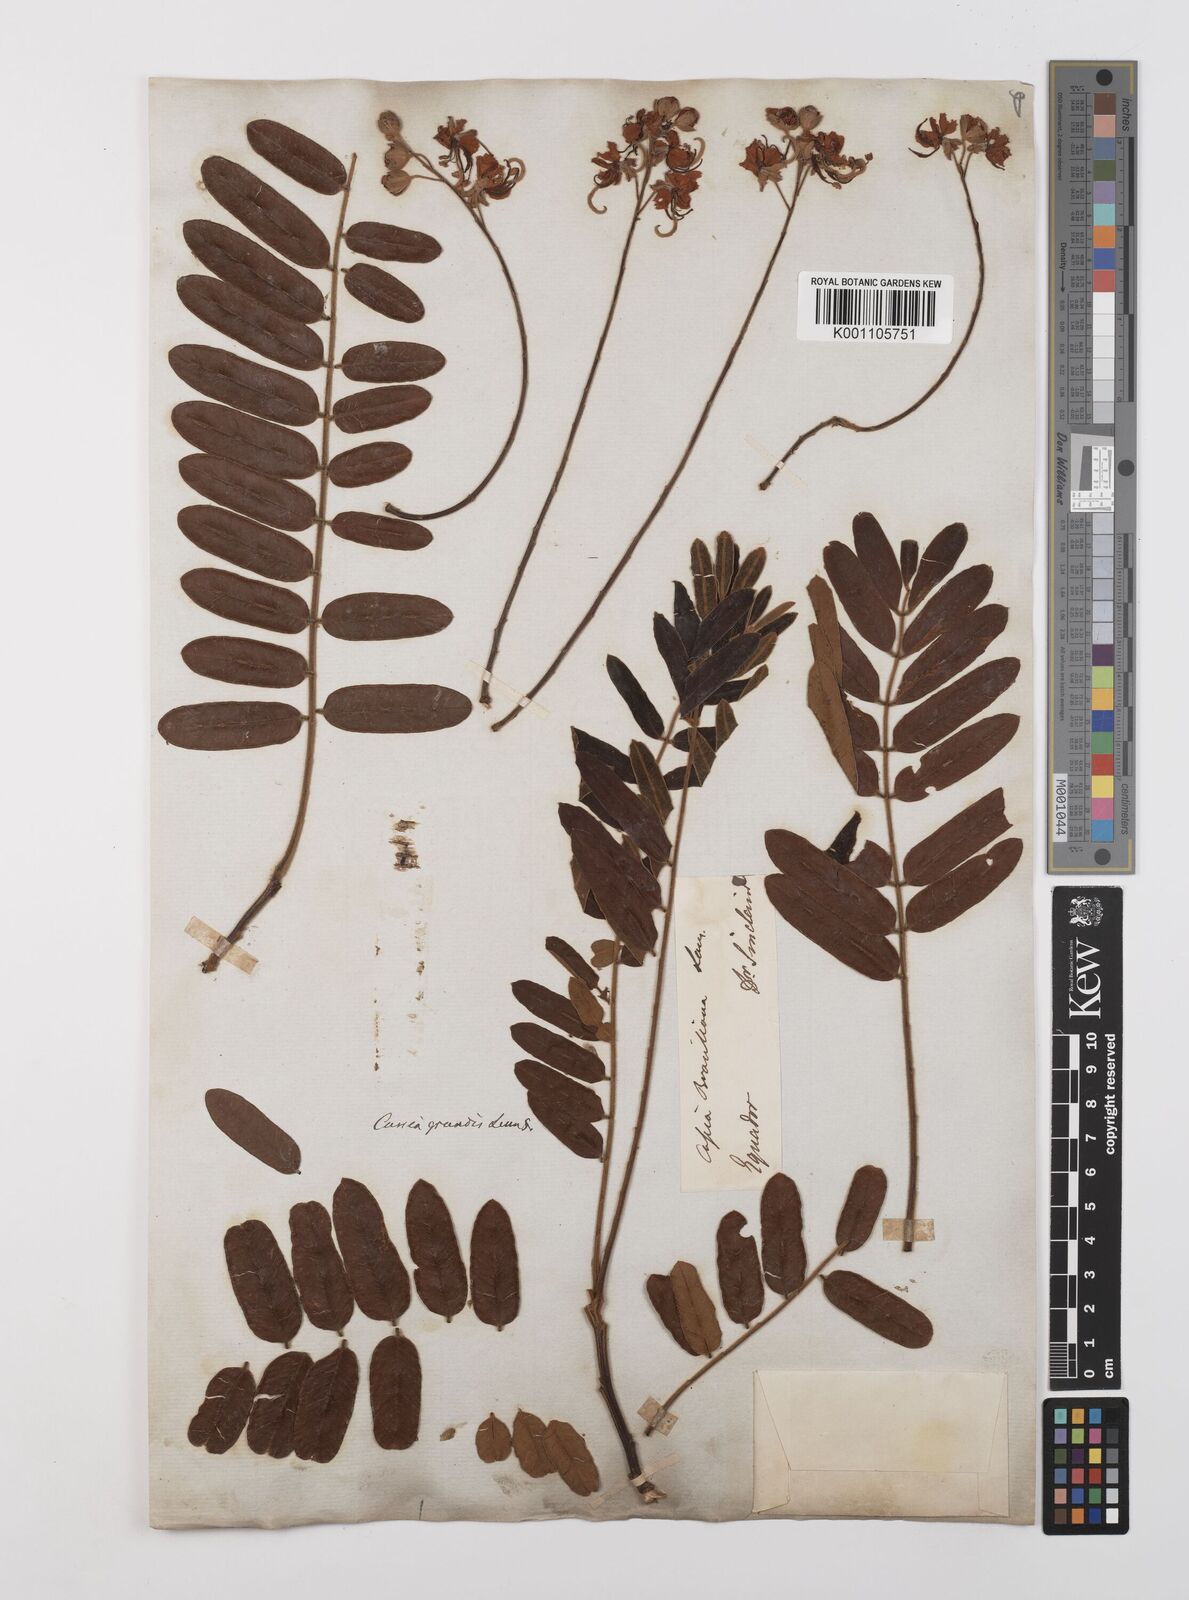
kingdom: Plantae
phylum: Tracheophyta
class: Magnoliopsida
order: Fabales
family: Fabaceae
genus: Cassia
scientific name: Cassia grandis
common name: Appleblossom cassia
